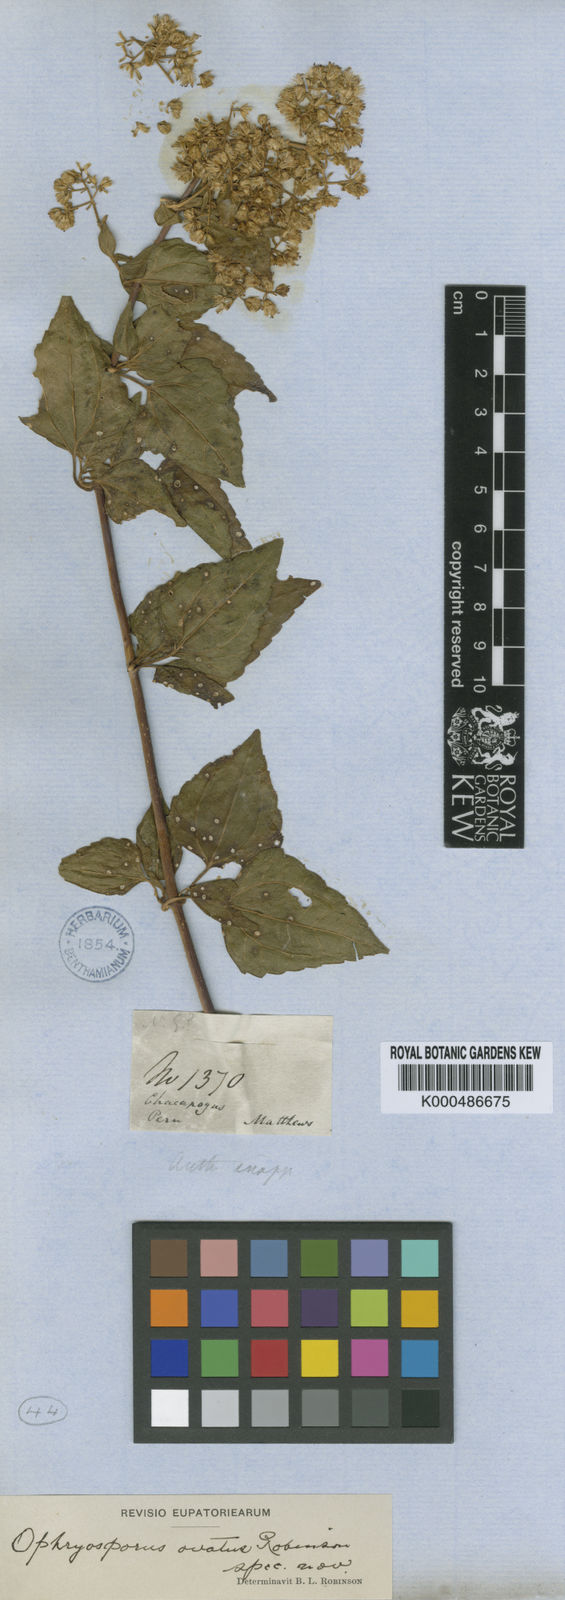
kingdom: Plantae
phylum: Tracheophyta
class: Magnoliopsida
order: Asterales
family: Asteraceae
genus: Ophryosporus
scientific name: Ophryosporus ovatus
